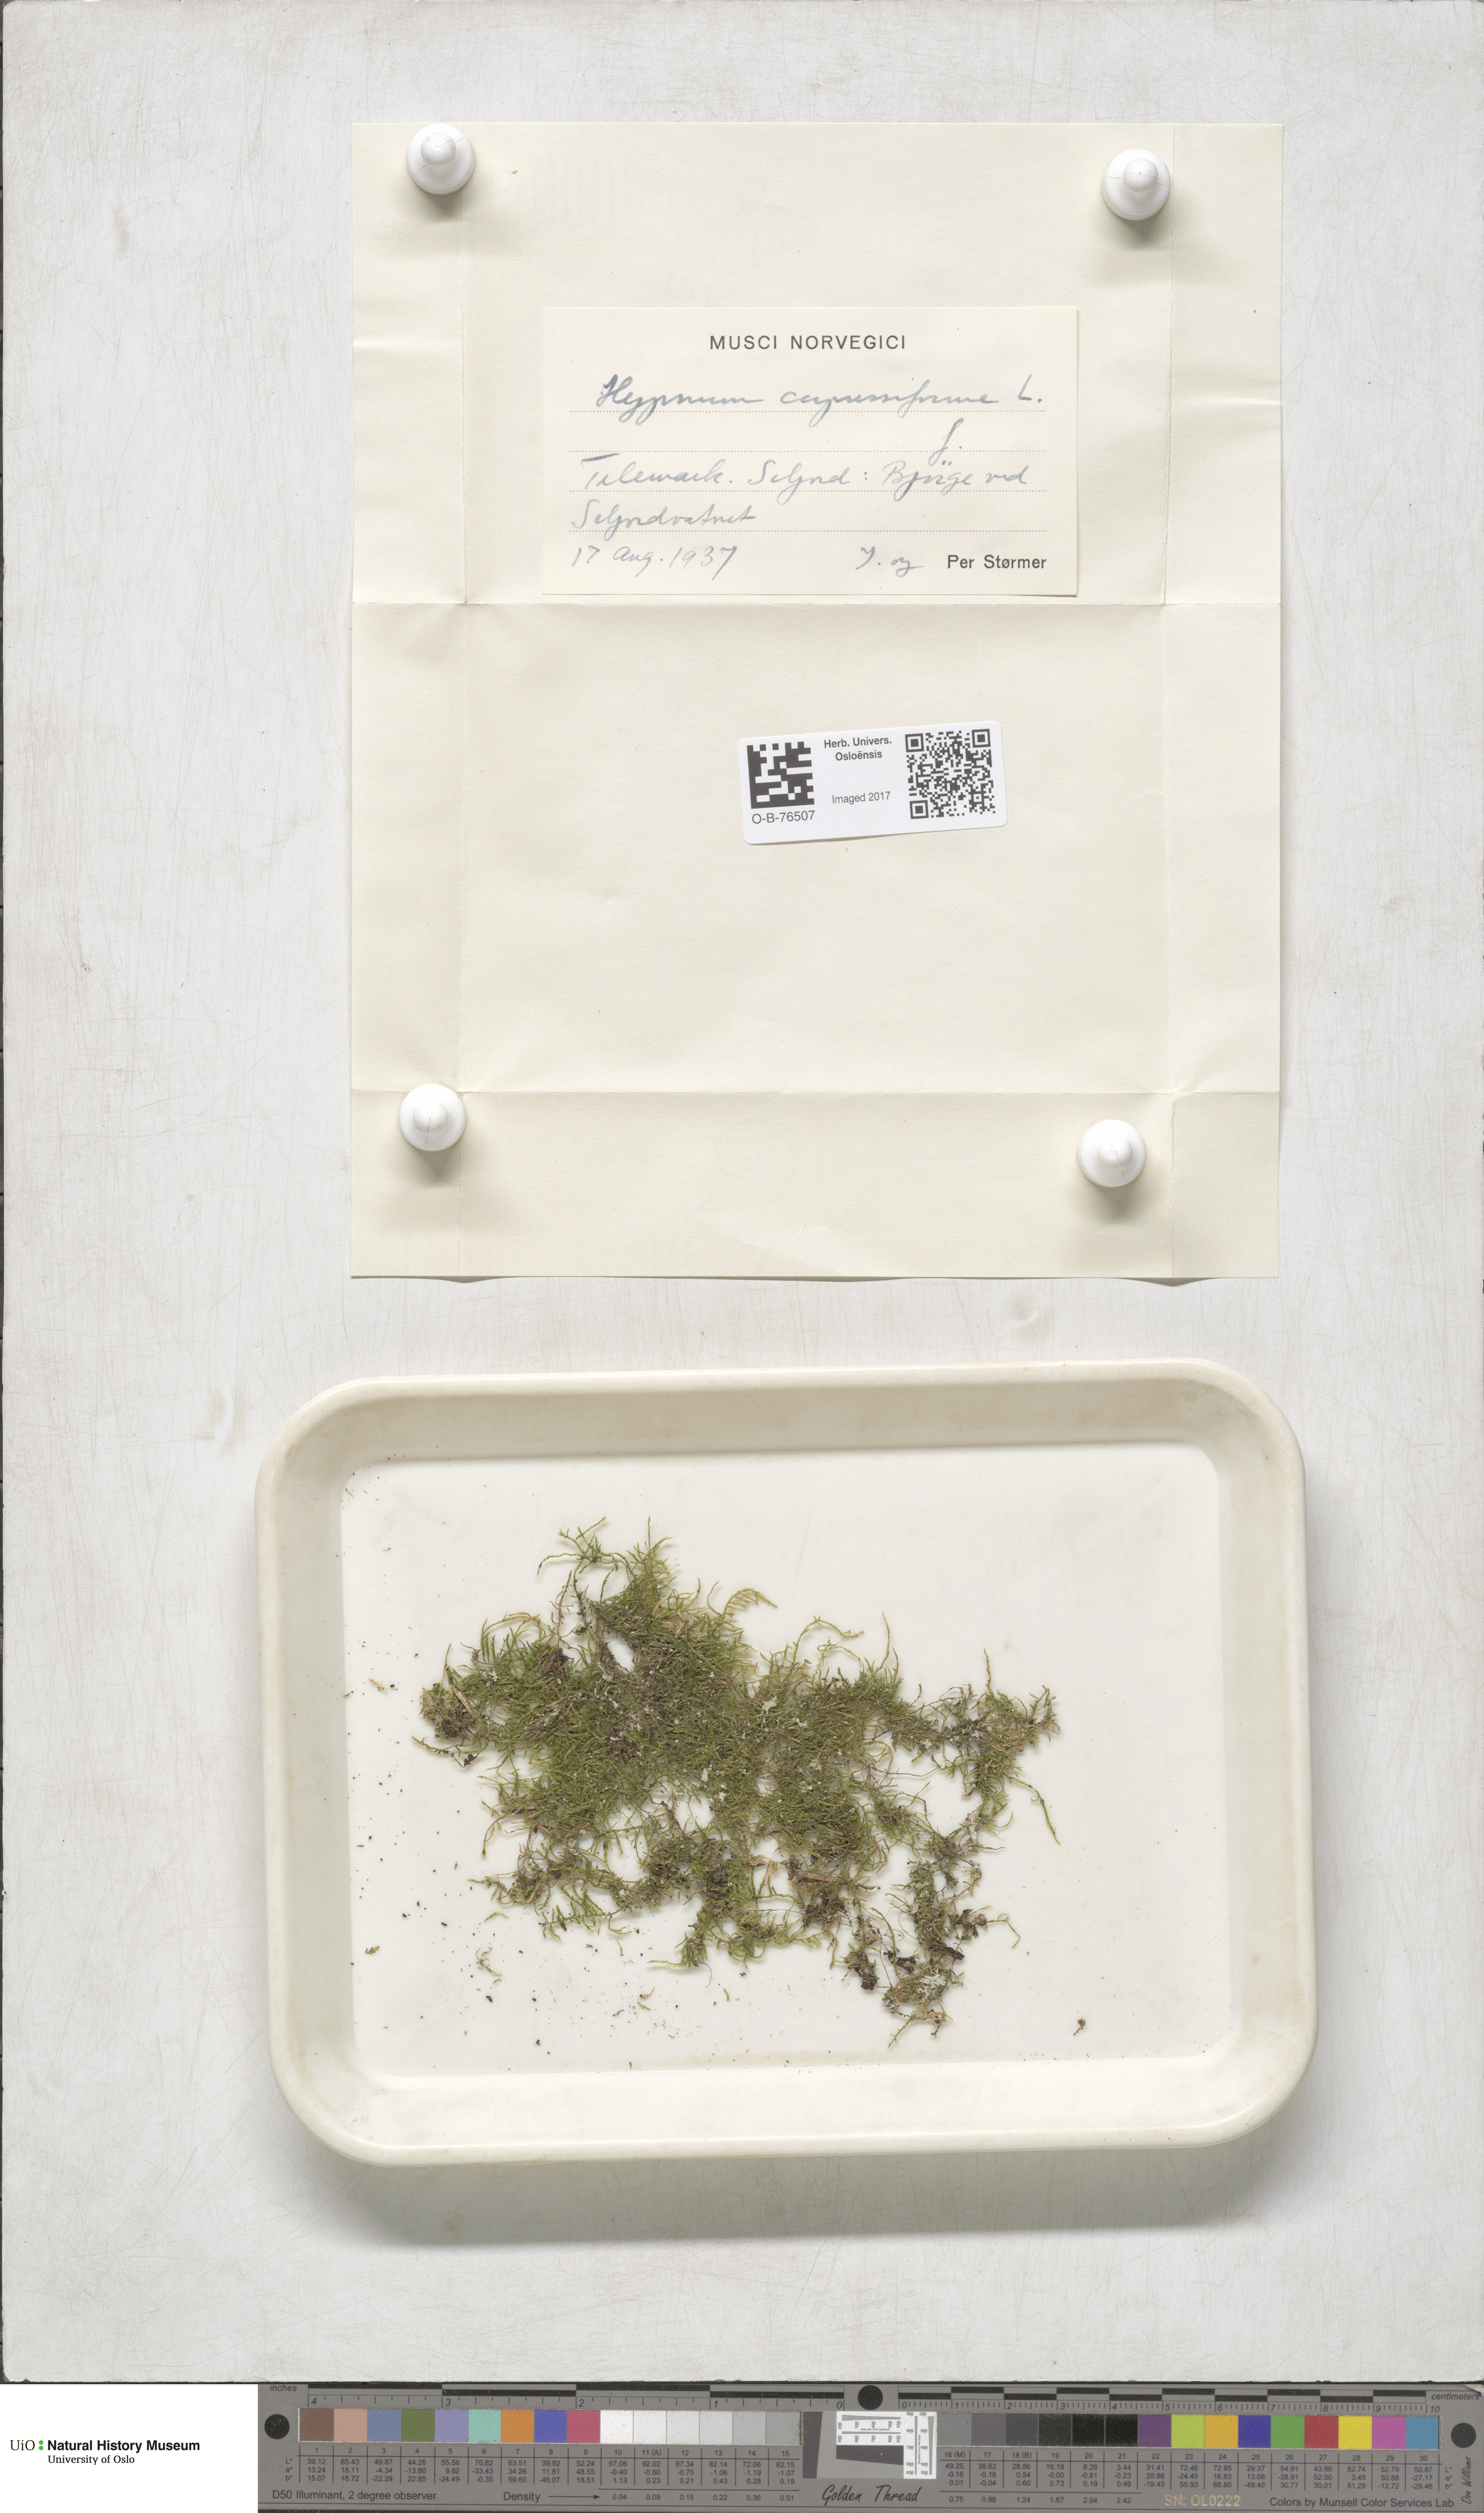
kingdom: Plantae
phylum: Bryophyta
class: Bryopsida
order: Hypnales
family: Hypnaceae
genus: Hypnum
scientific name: Hypnum cupressiforme
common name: Cypress-leaved plait-moss
